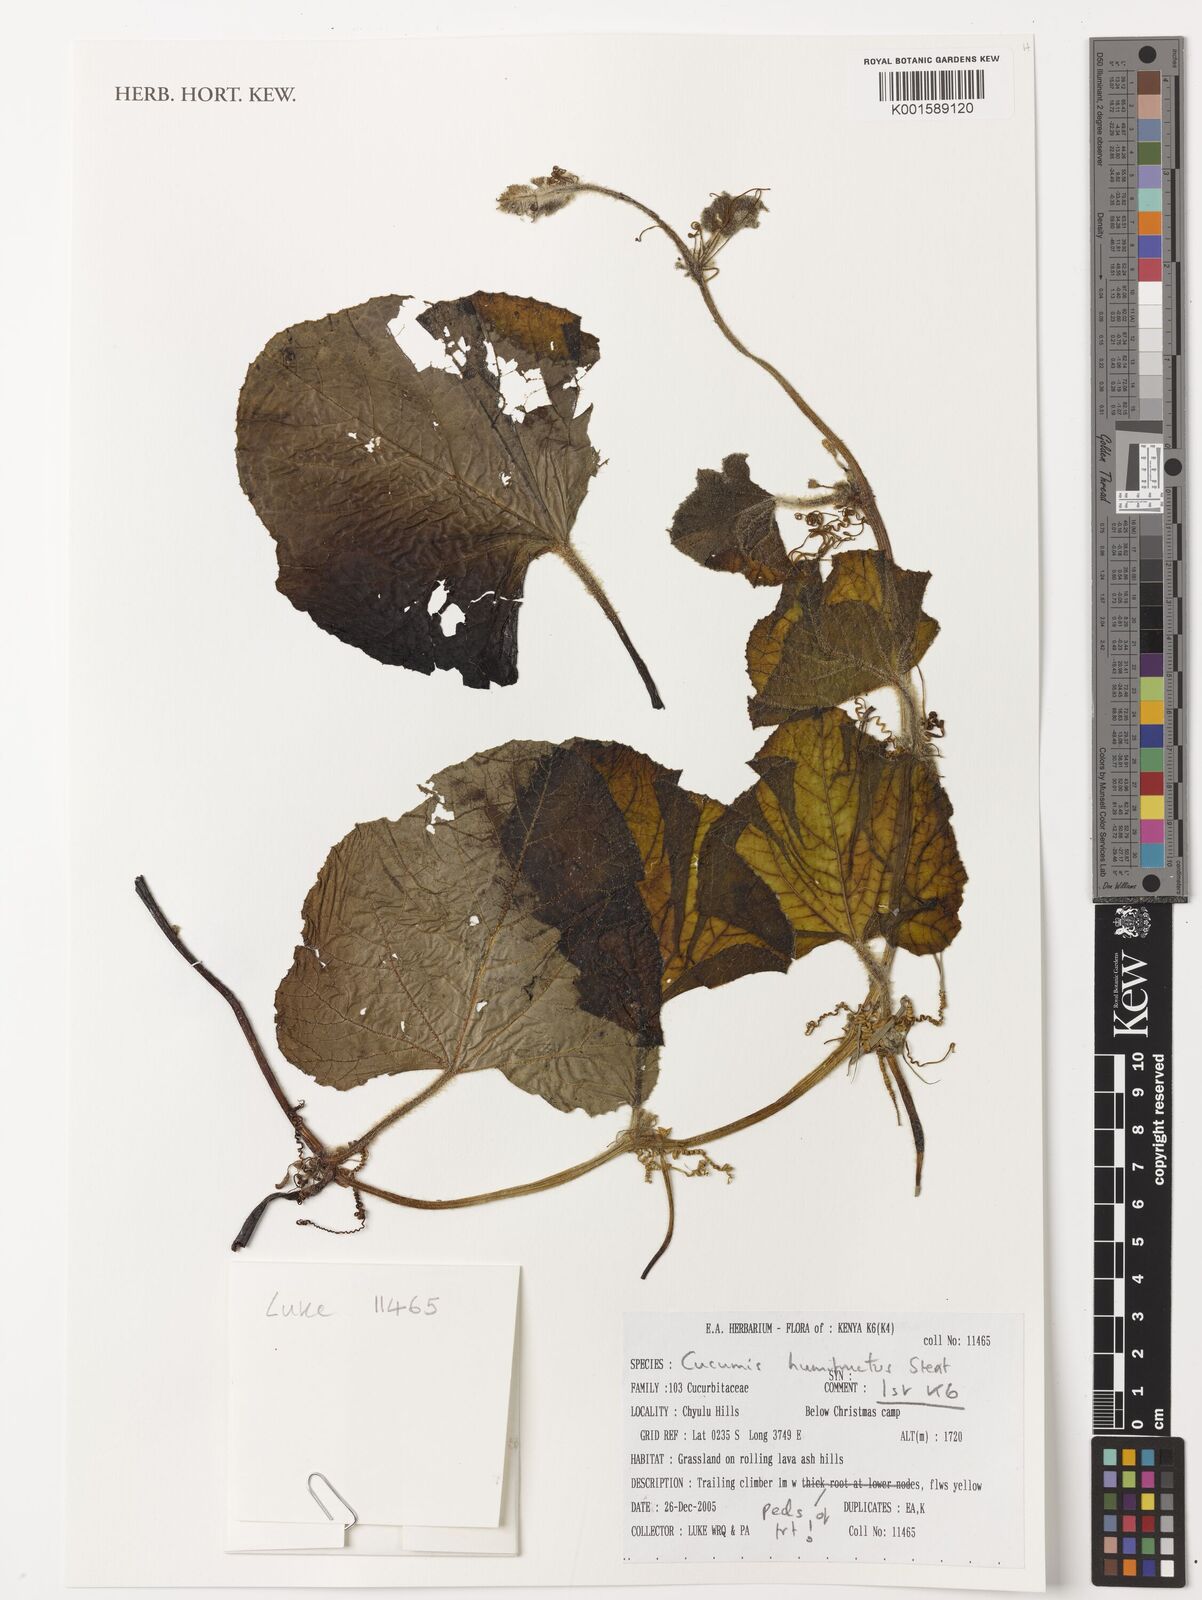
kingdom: Plantae
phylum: Tracheophyta
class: Magnoliopsida
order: Cucurbitales
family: Cucurbitaceae
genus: Cucumis
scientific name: Cucumis humofructus
